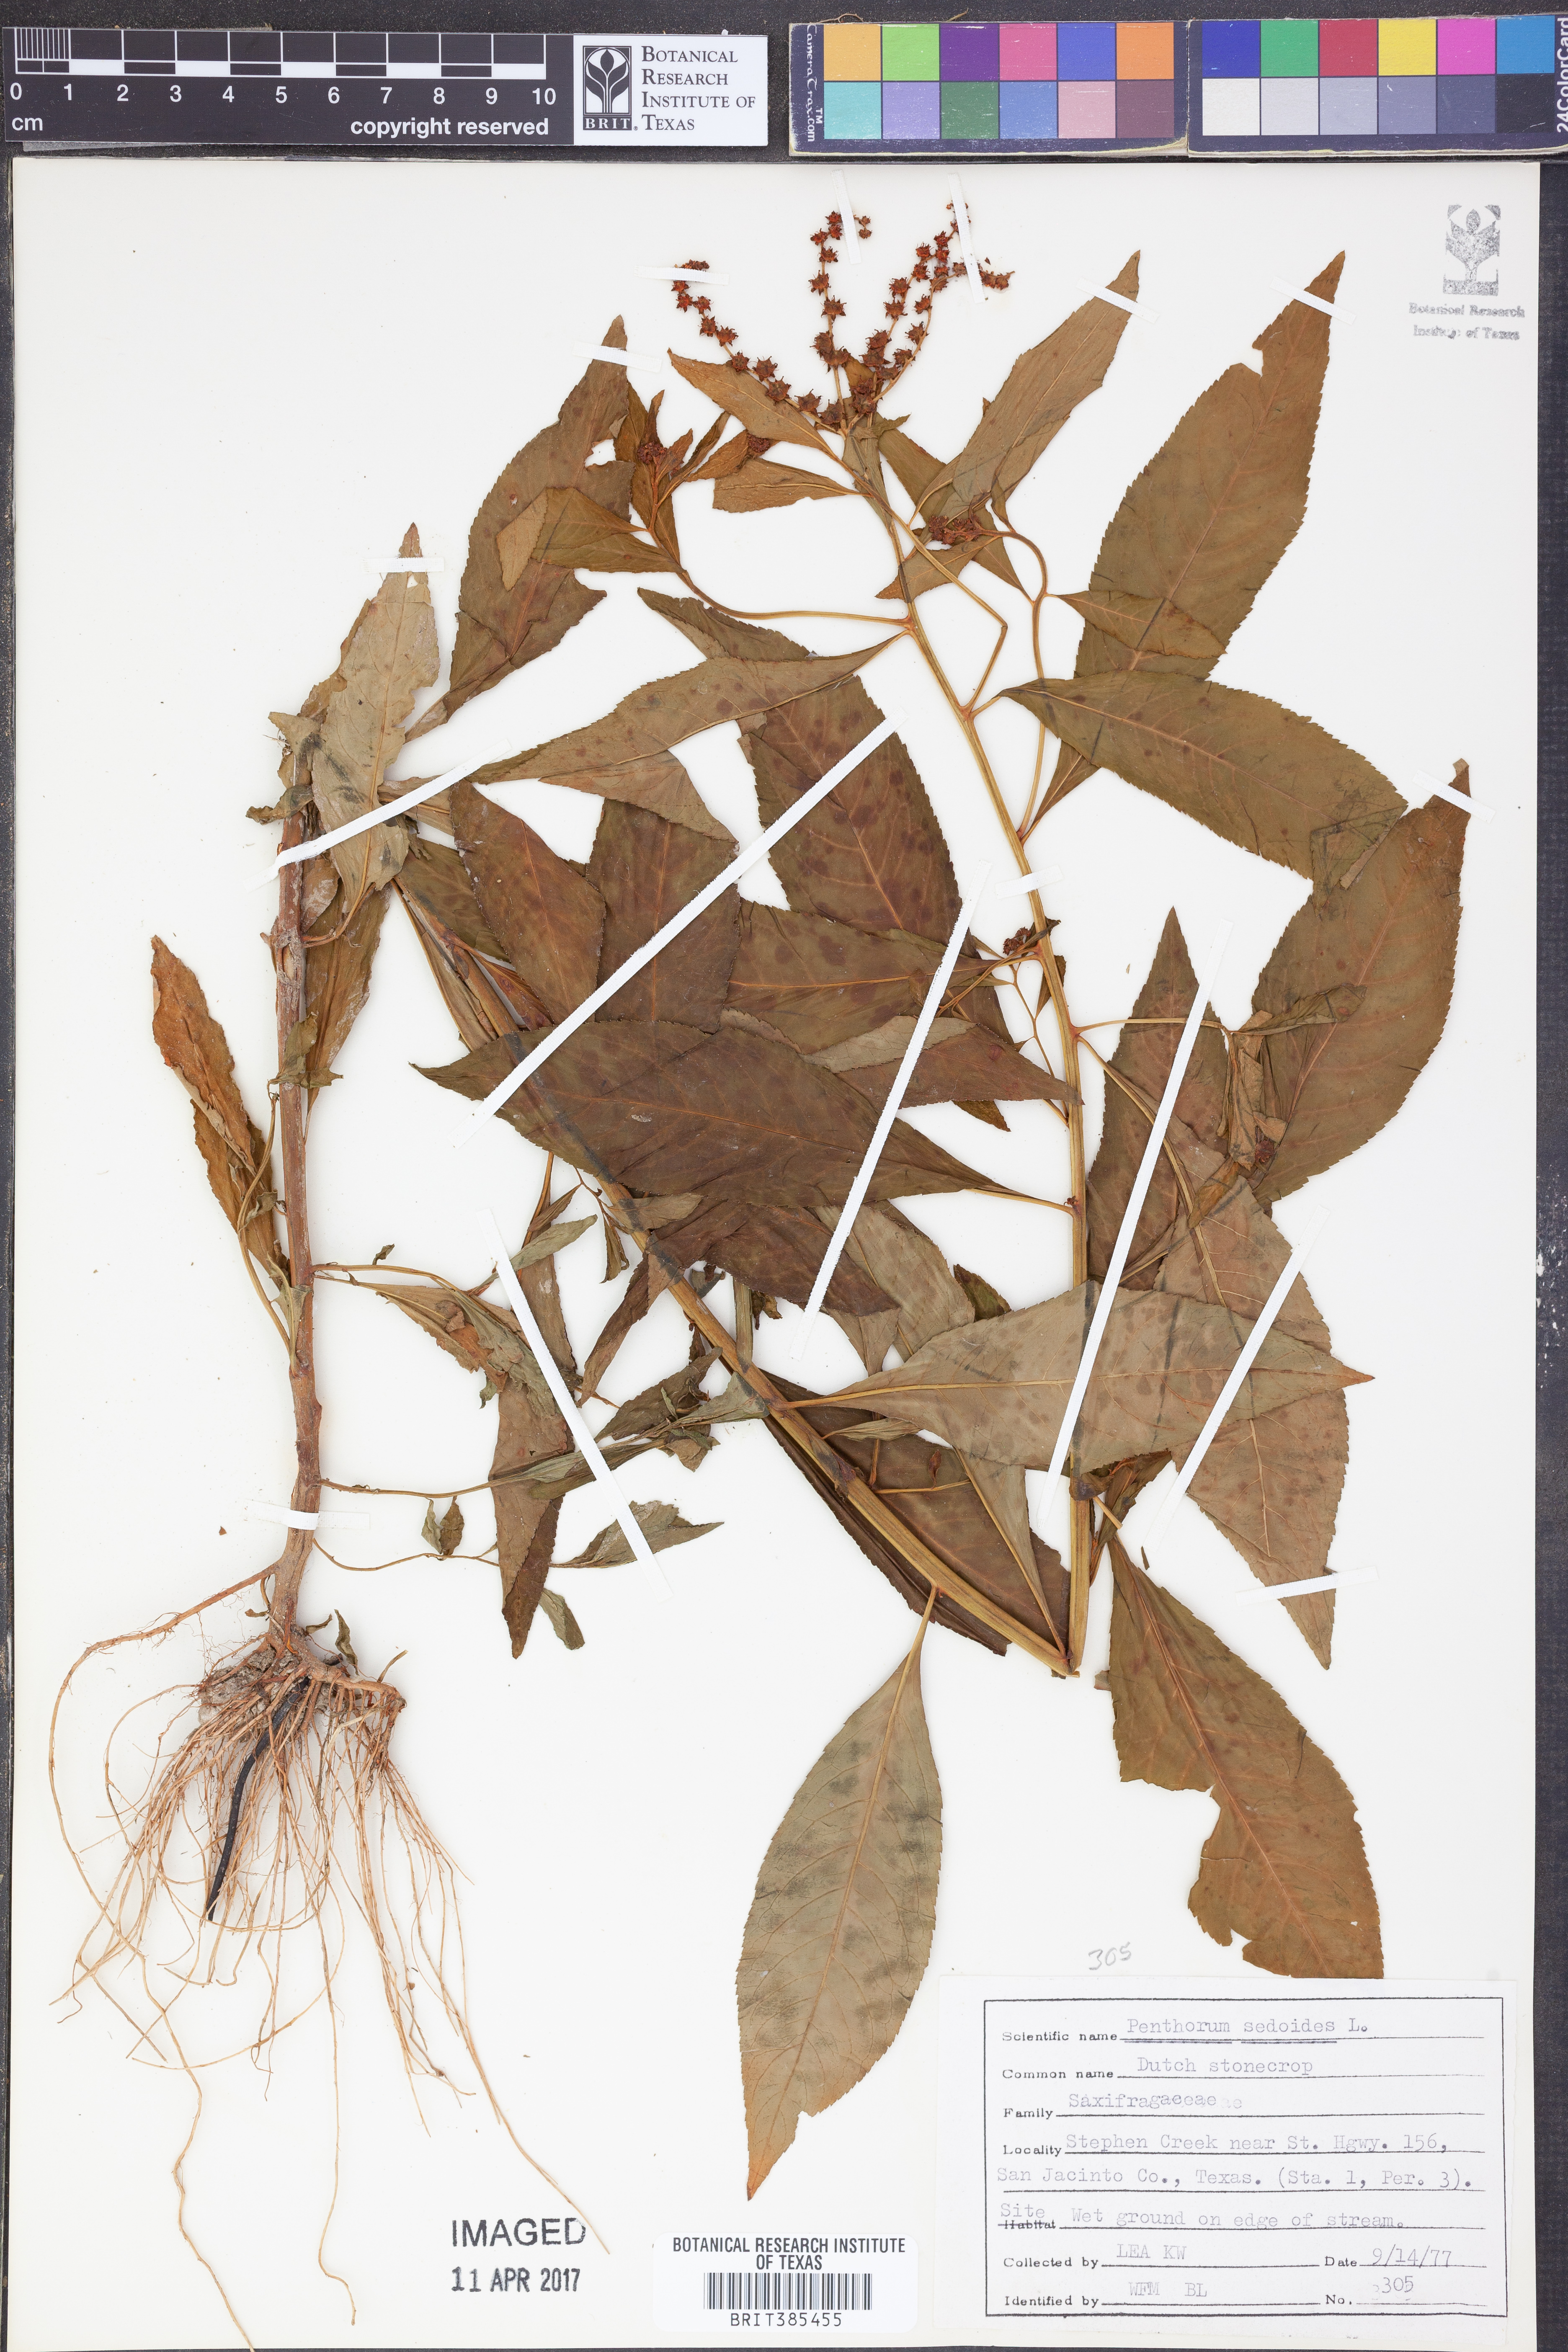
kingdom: Plantae
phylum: Tracheophyta
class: Magnoliopsida
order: Saxifragales
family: Penthoraceae
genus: Penthorum
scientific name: Penthorum sedoides
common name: Ditch stonecrop
